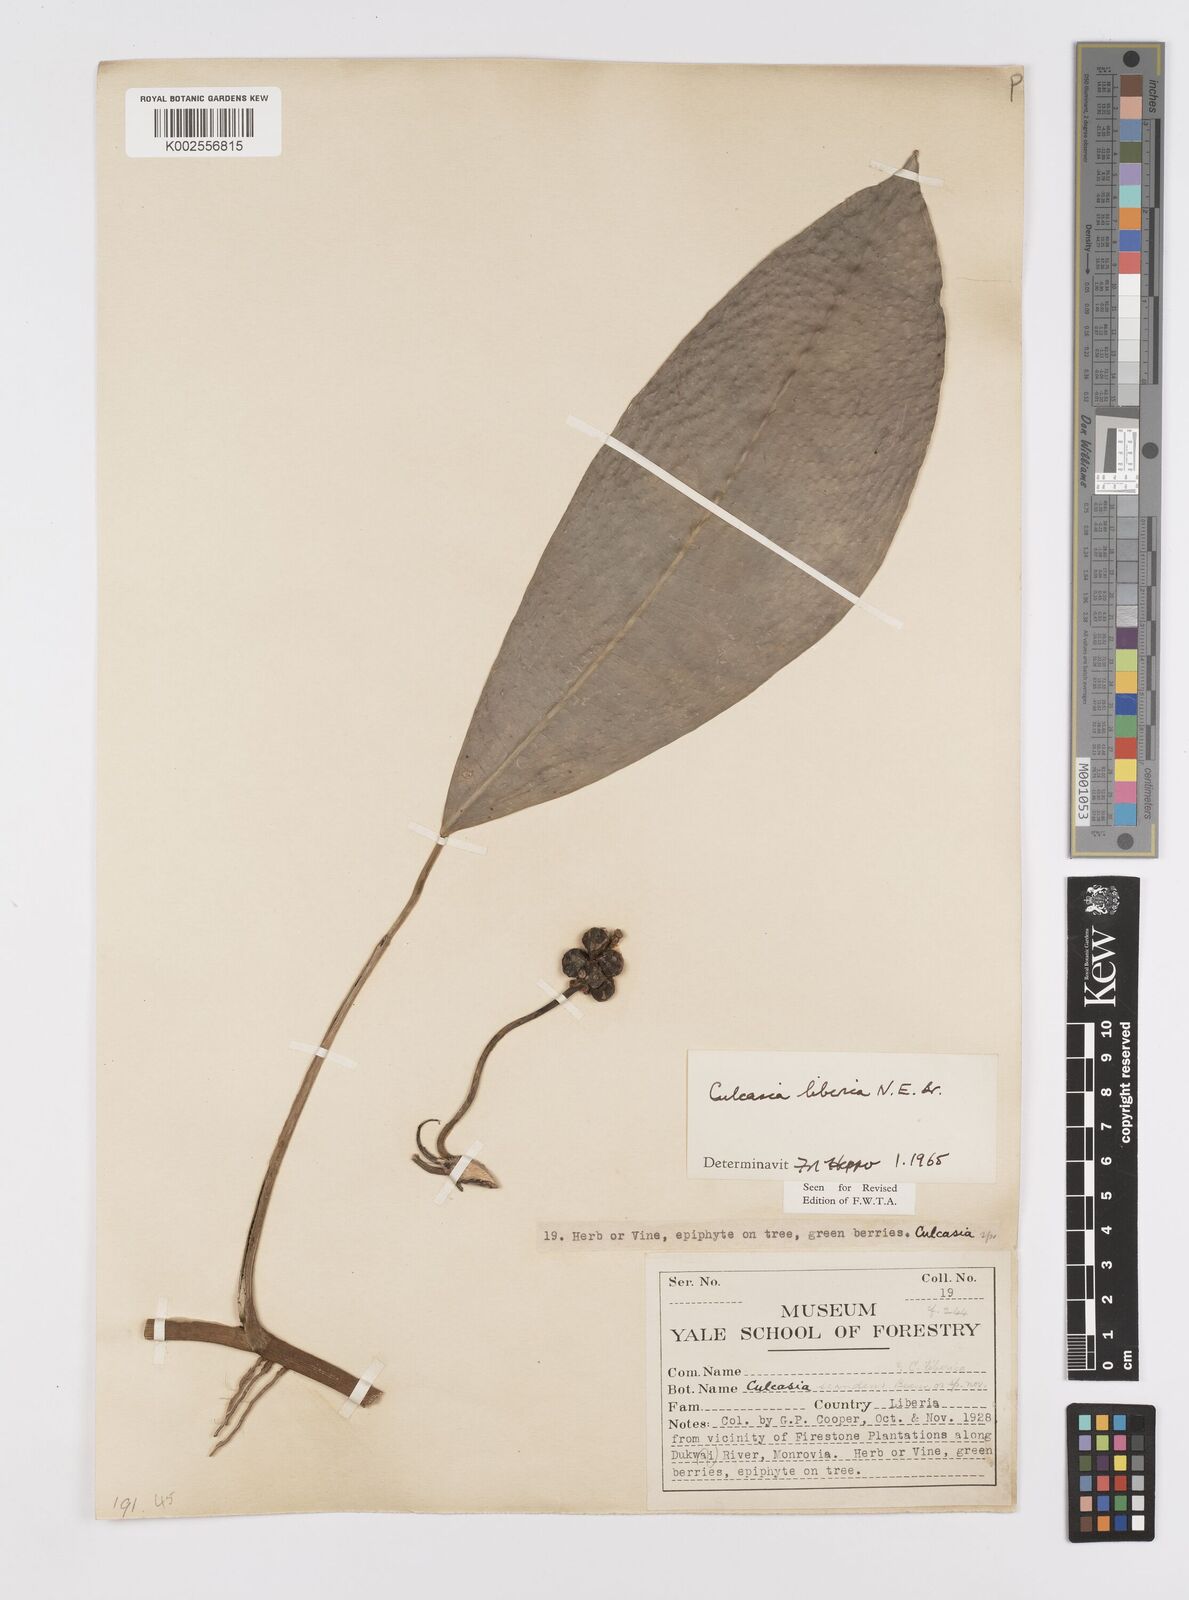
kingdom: Plantae
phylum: Tracheophyta
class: Liliopsida
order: Alismatales
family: Araceae
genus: Culcasia
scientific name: Culcasia liberica
